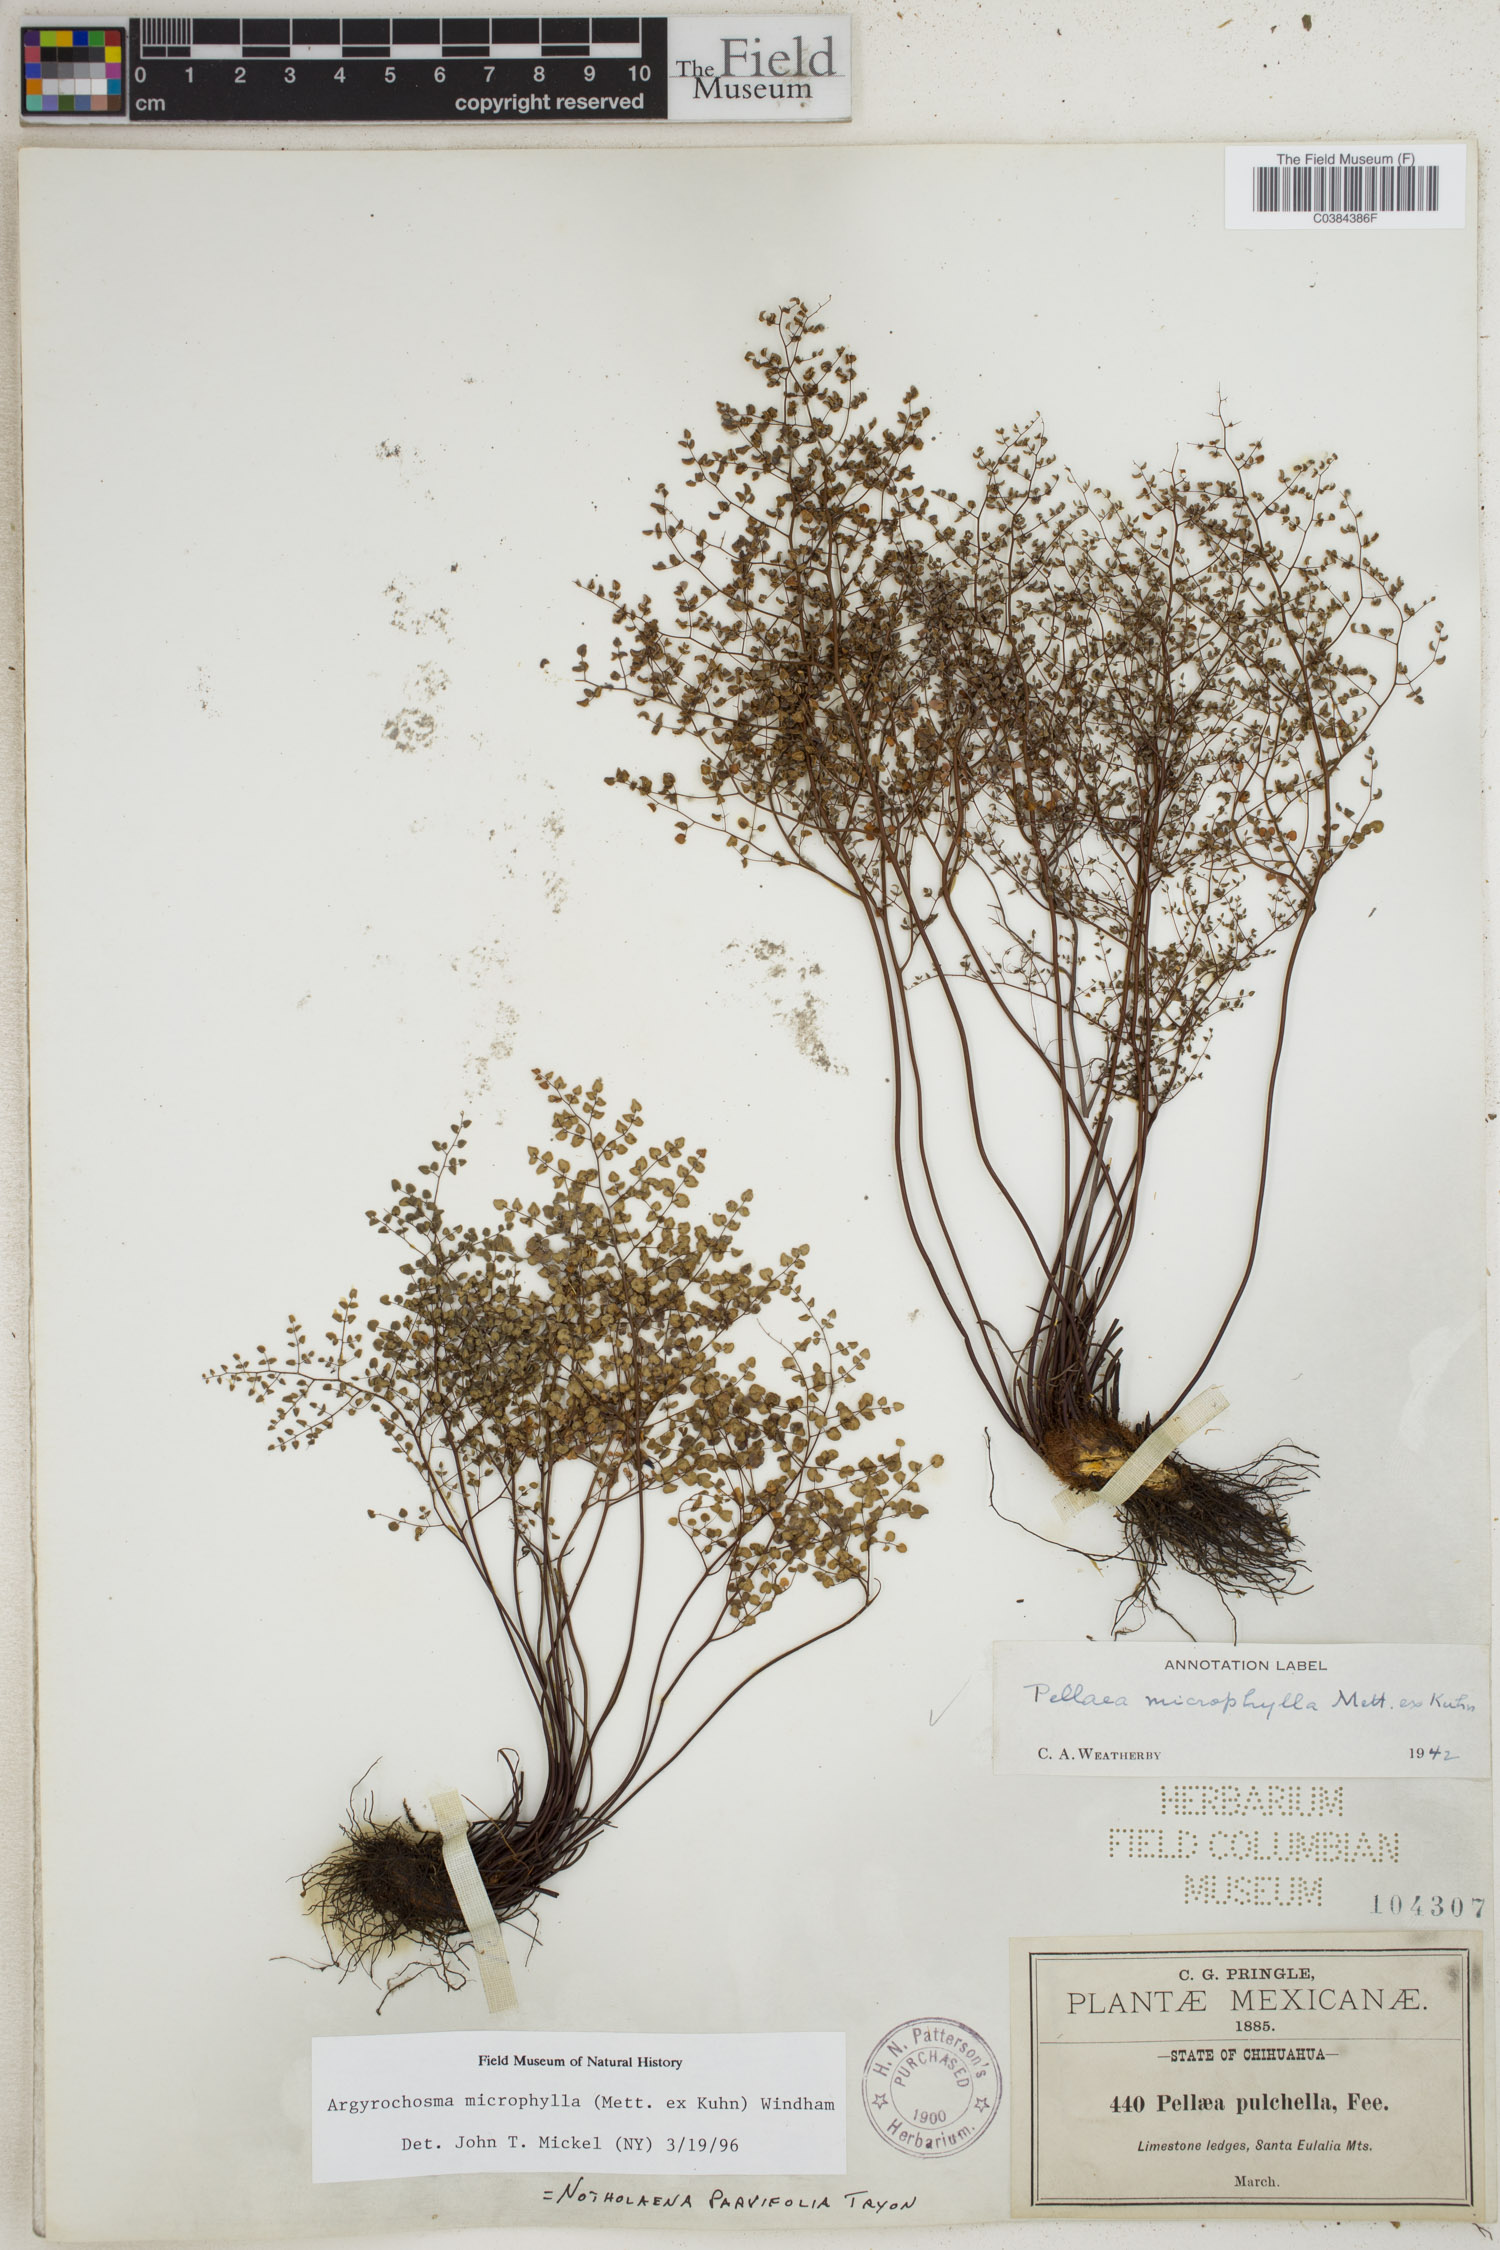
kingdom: Plantae
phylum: Tracheophyta
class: Polypodiopsida
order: Polypodiales
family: Pteridaceae
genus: Argyrochosma
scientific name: Argyrochosma microphylla
